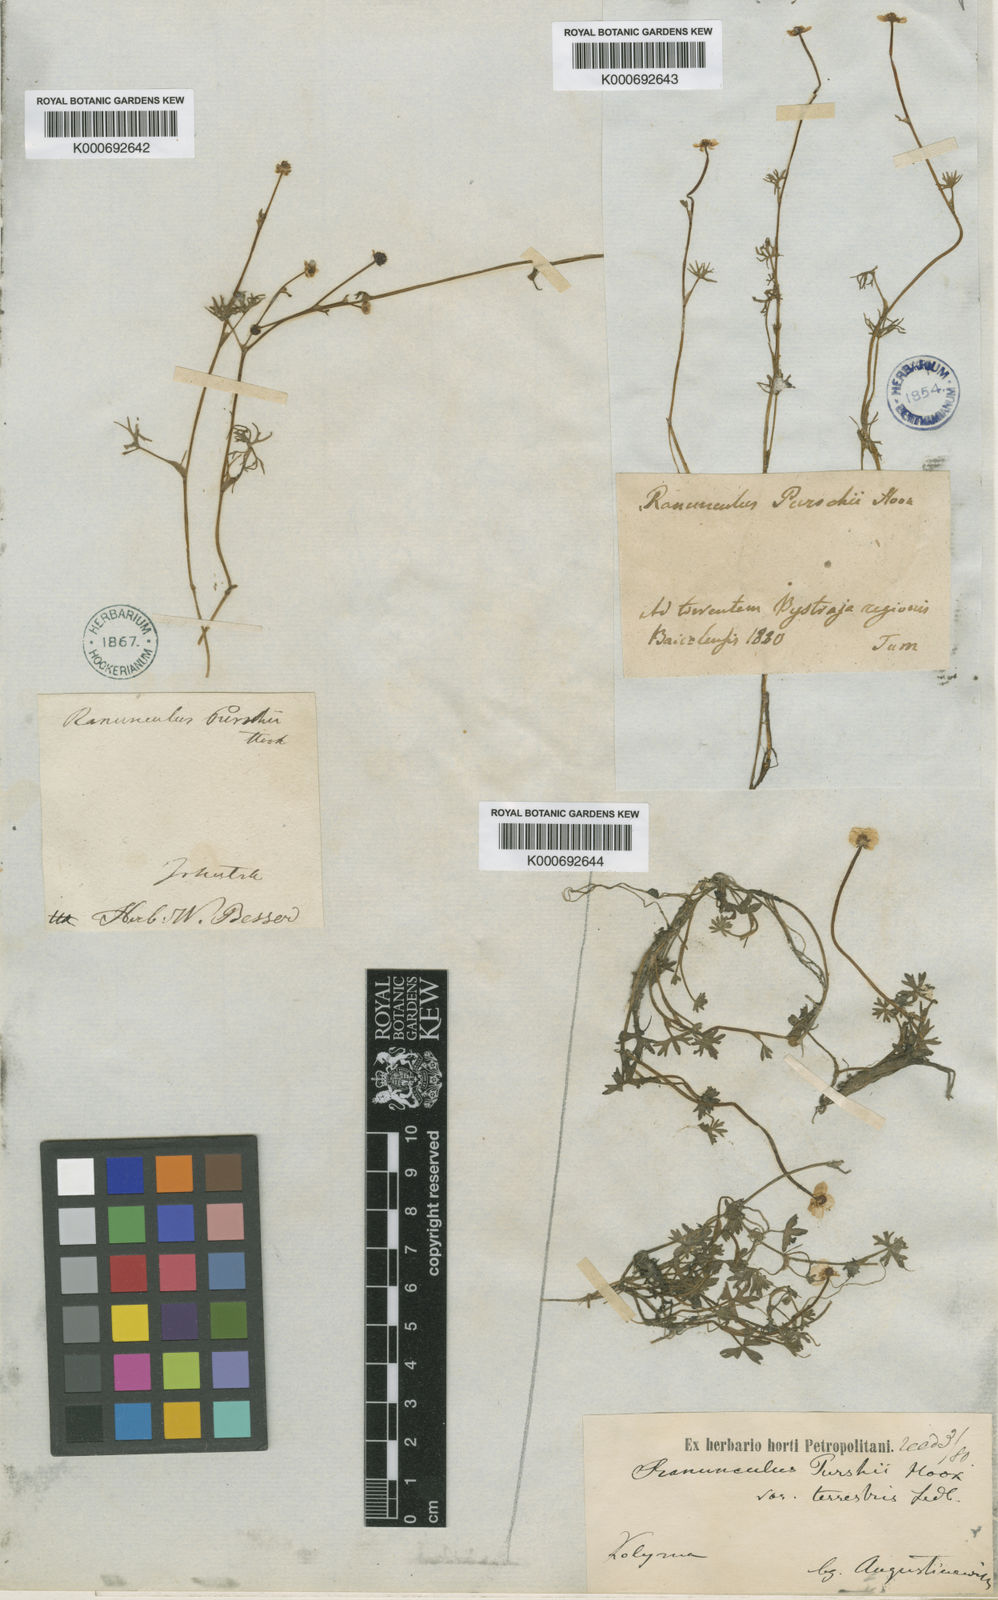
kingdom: Plantae
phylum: Tracheophyta
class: Magnoliopsida
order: Ranunculales
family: Ranunculaceae
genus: Ranunculus
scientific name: Ranunculus
